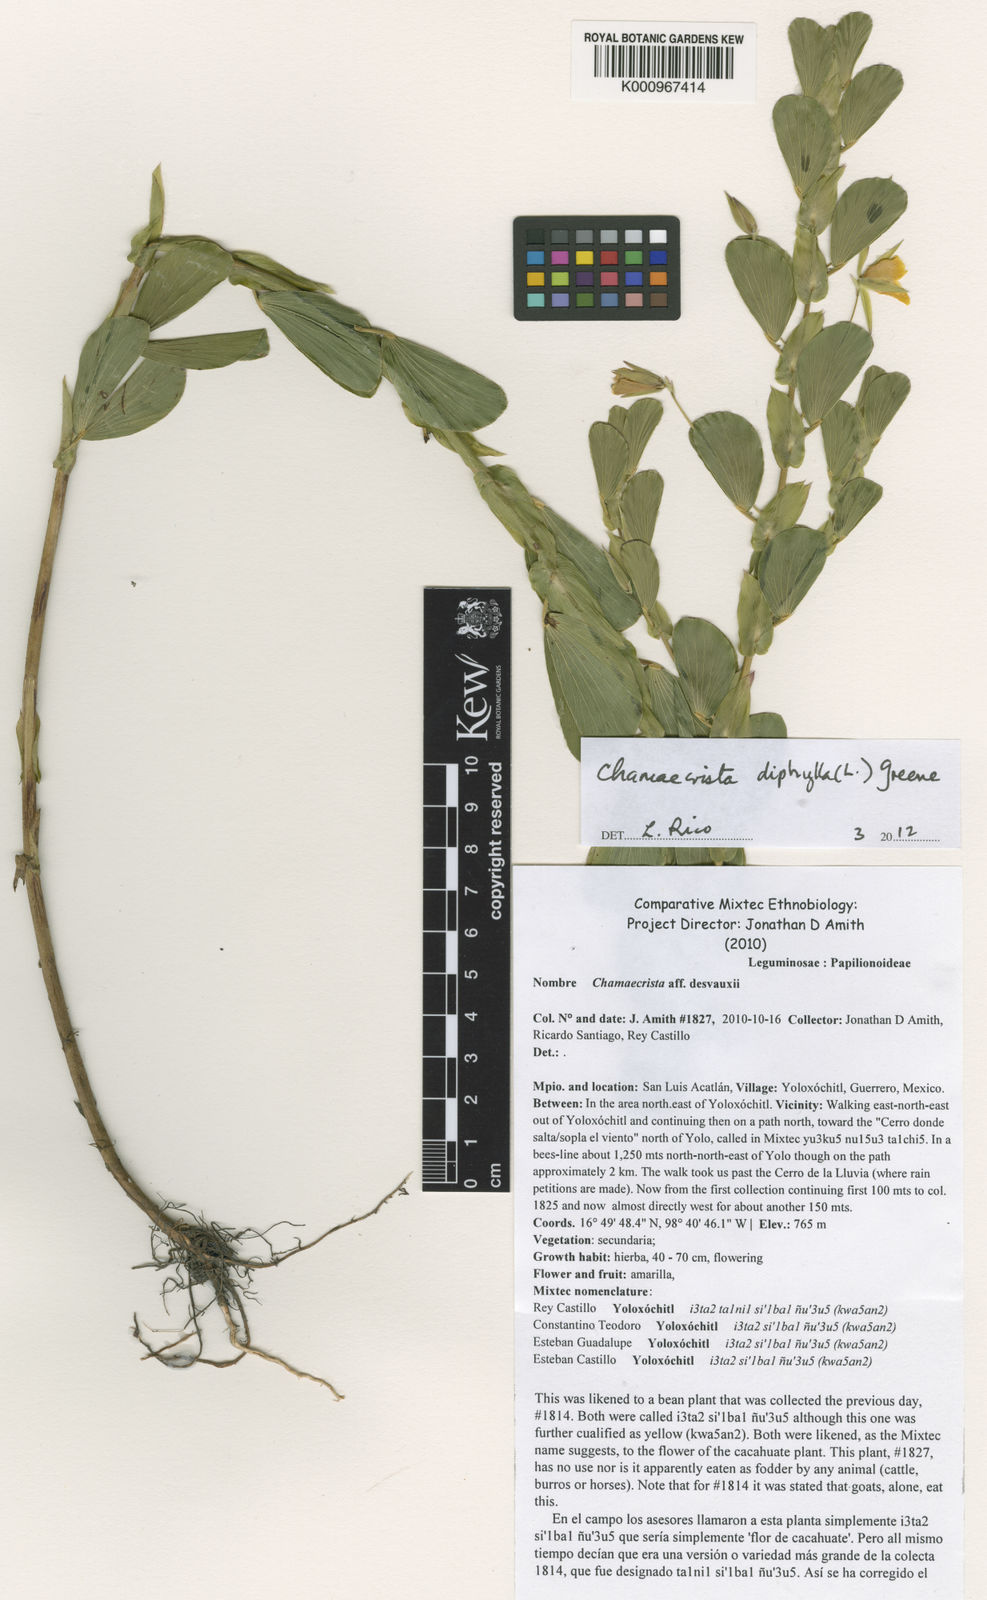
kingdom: Plantae
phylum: Tracheophyta
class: Magnoliopsida
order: Fabales
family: Fabaceae
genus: Chamaecrista
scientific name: Chamaecrista diphylla
